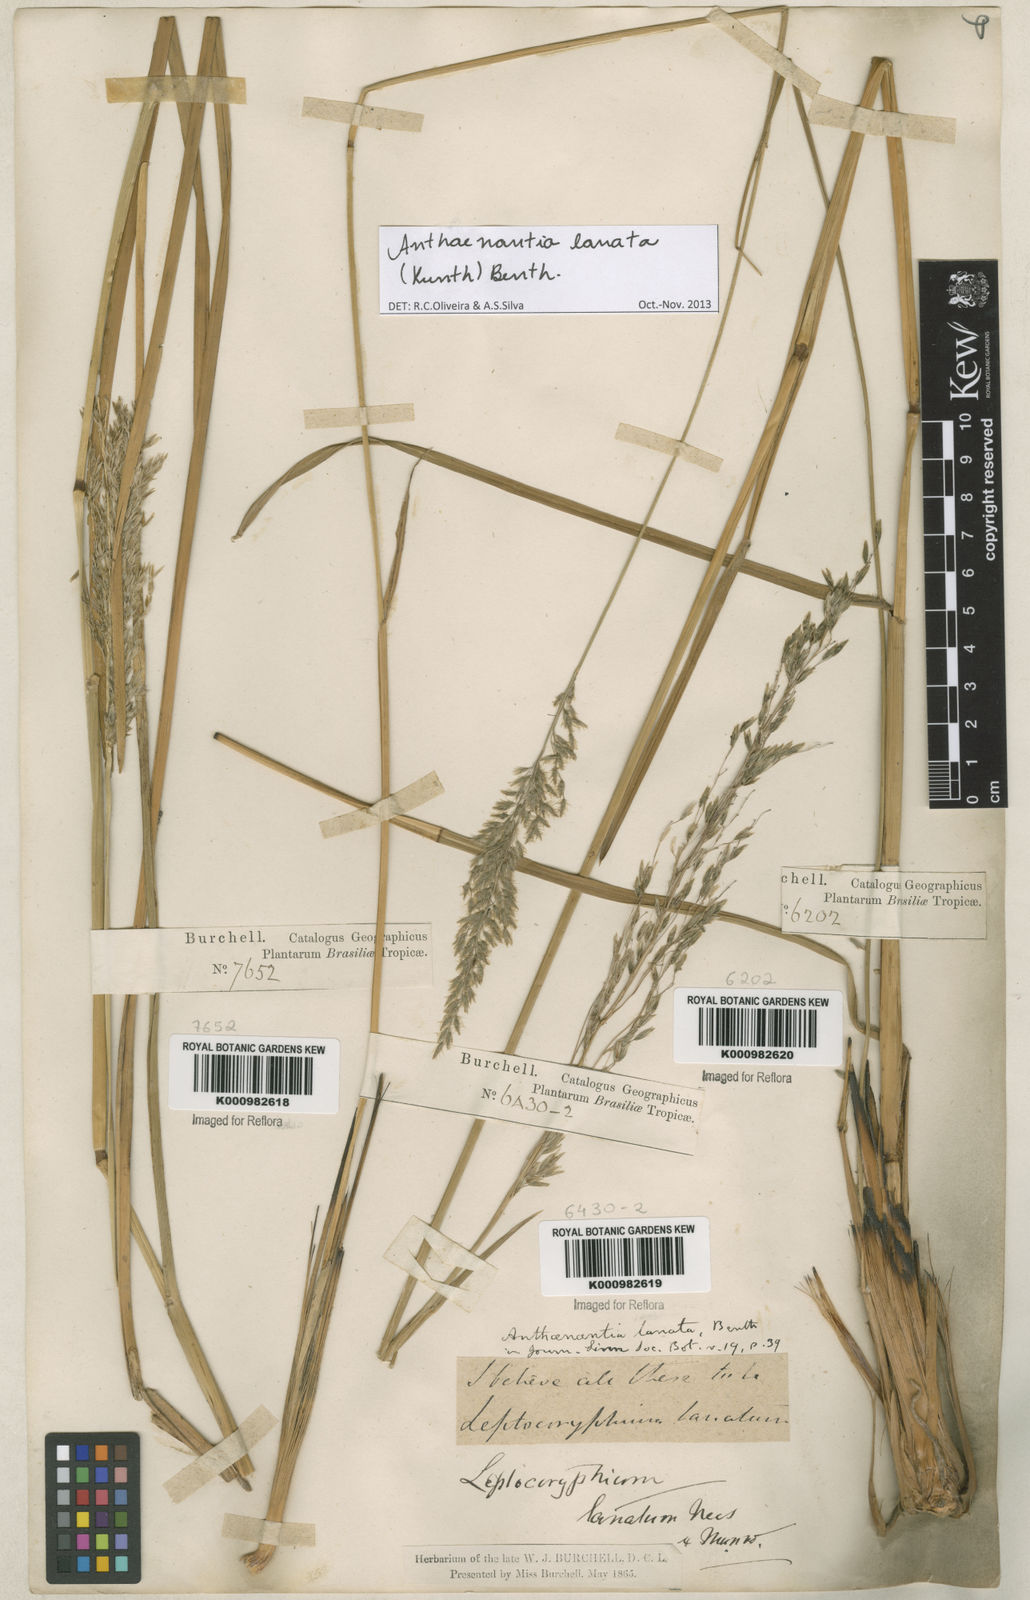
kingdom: Plantae
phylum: Tracheophyta
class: Liliopsida
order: Poales
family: Poaceae
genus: Anthenantia
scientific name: Anthenantia lanata
